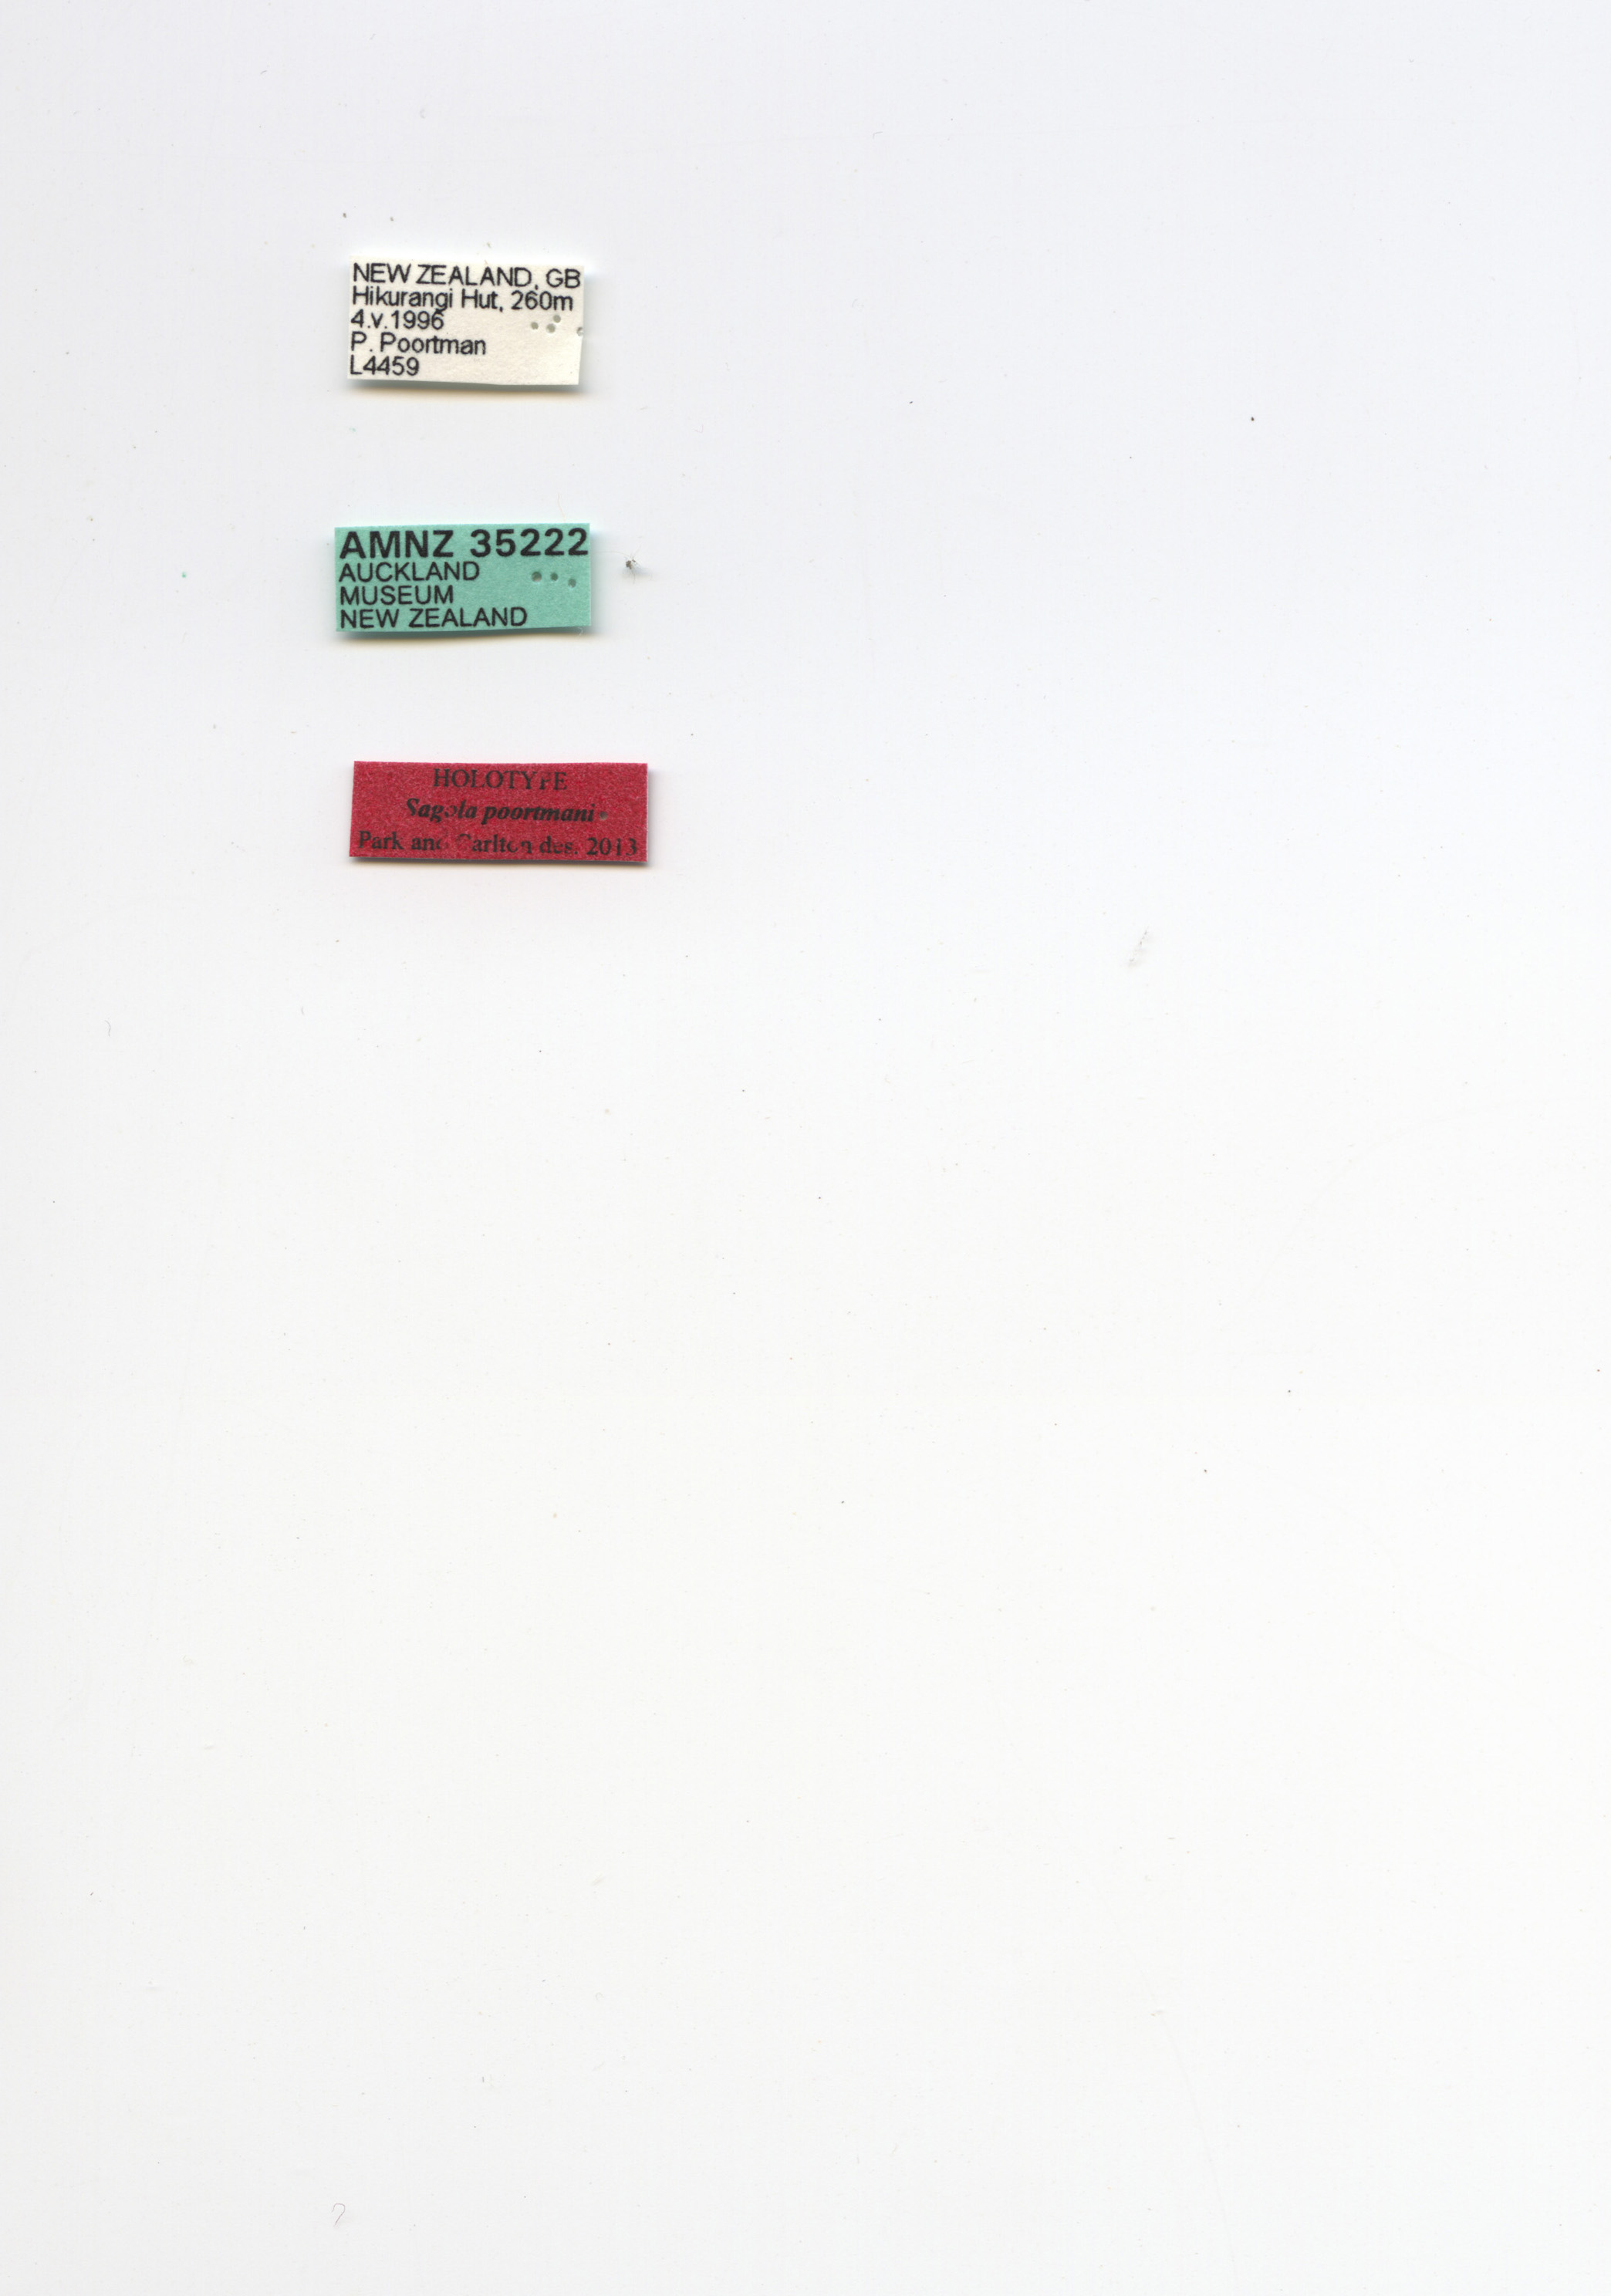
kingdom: Animalia
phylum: Arthropoda
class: Insecta
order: Coleoptera
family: Staphylinidae
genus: Sagola
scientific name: Sagola poortmani
